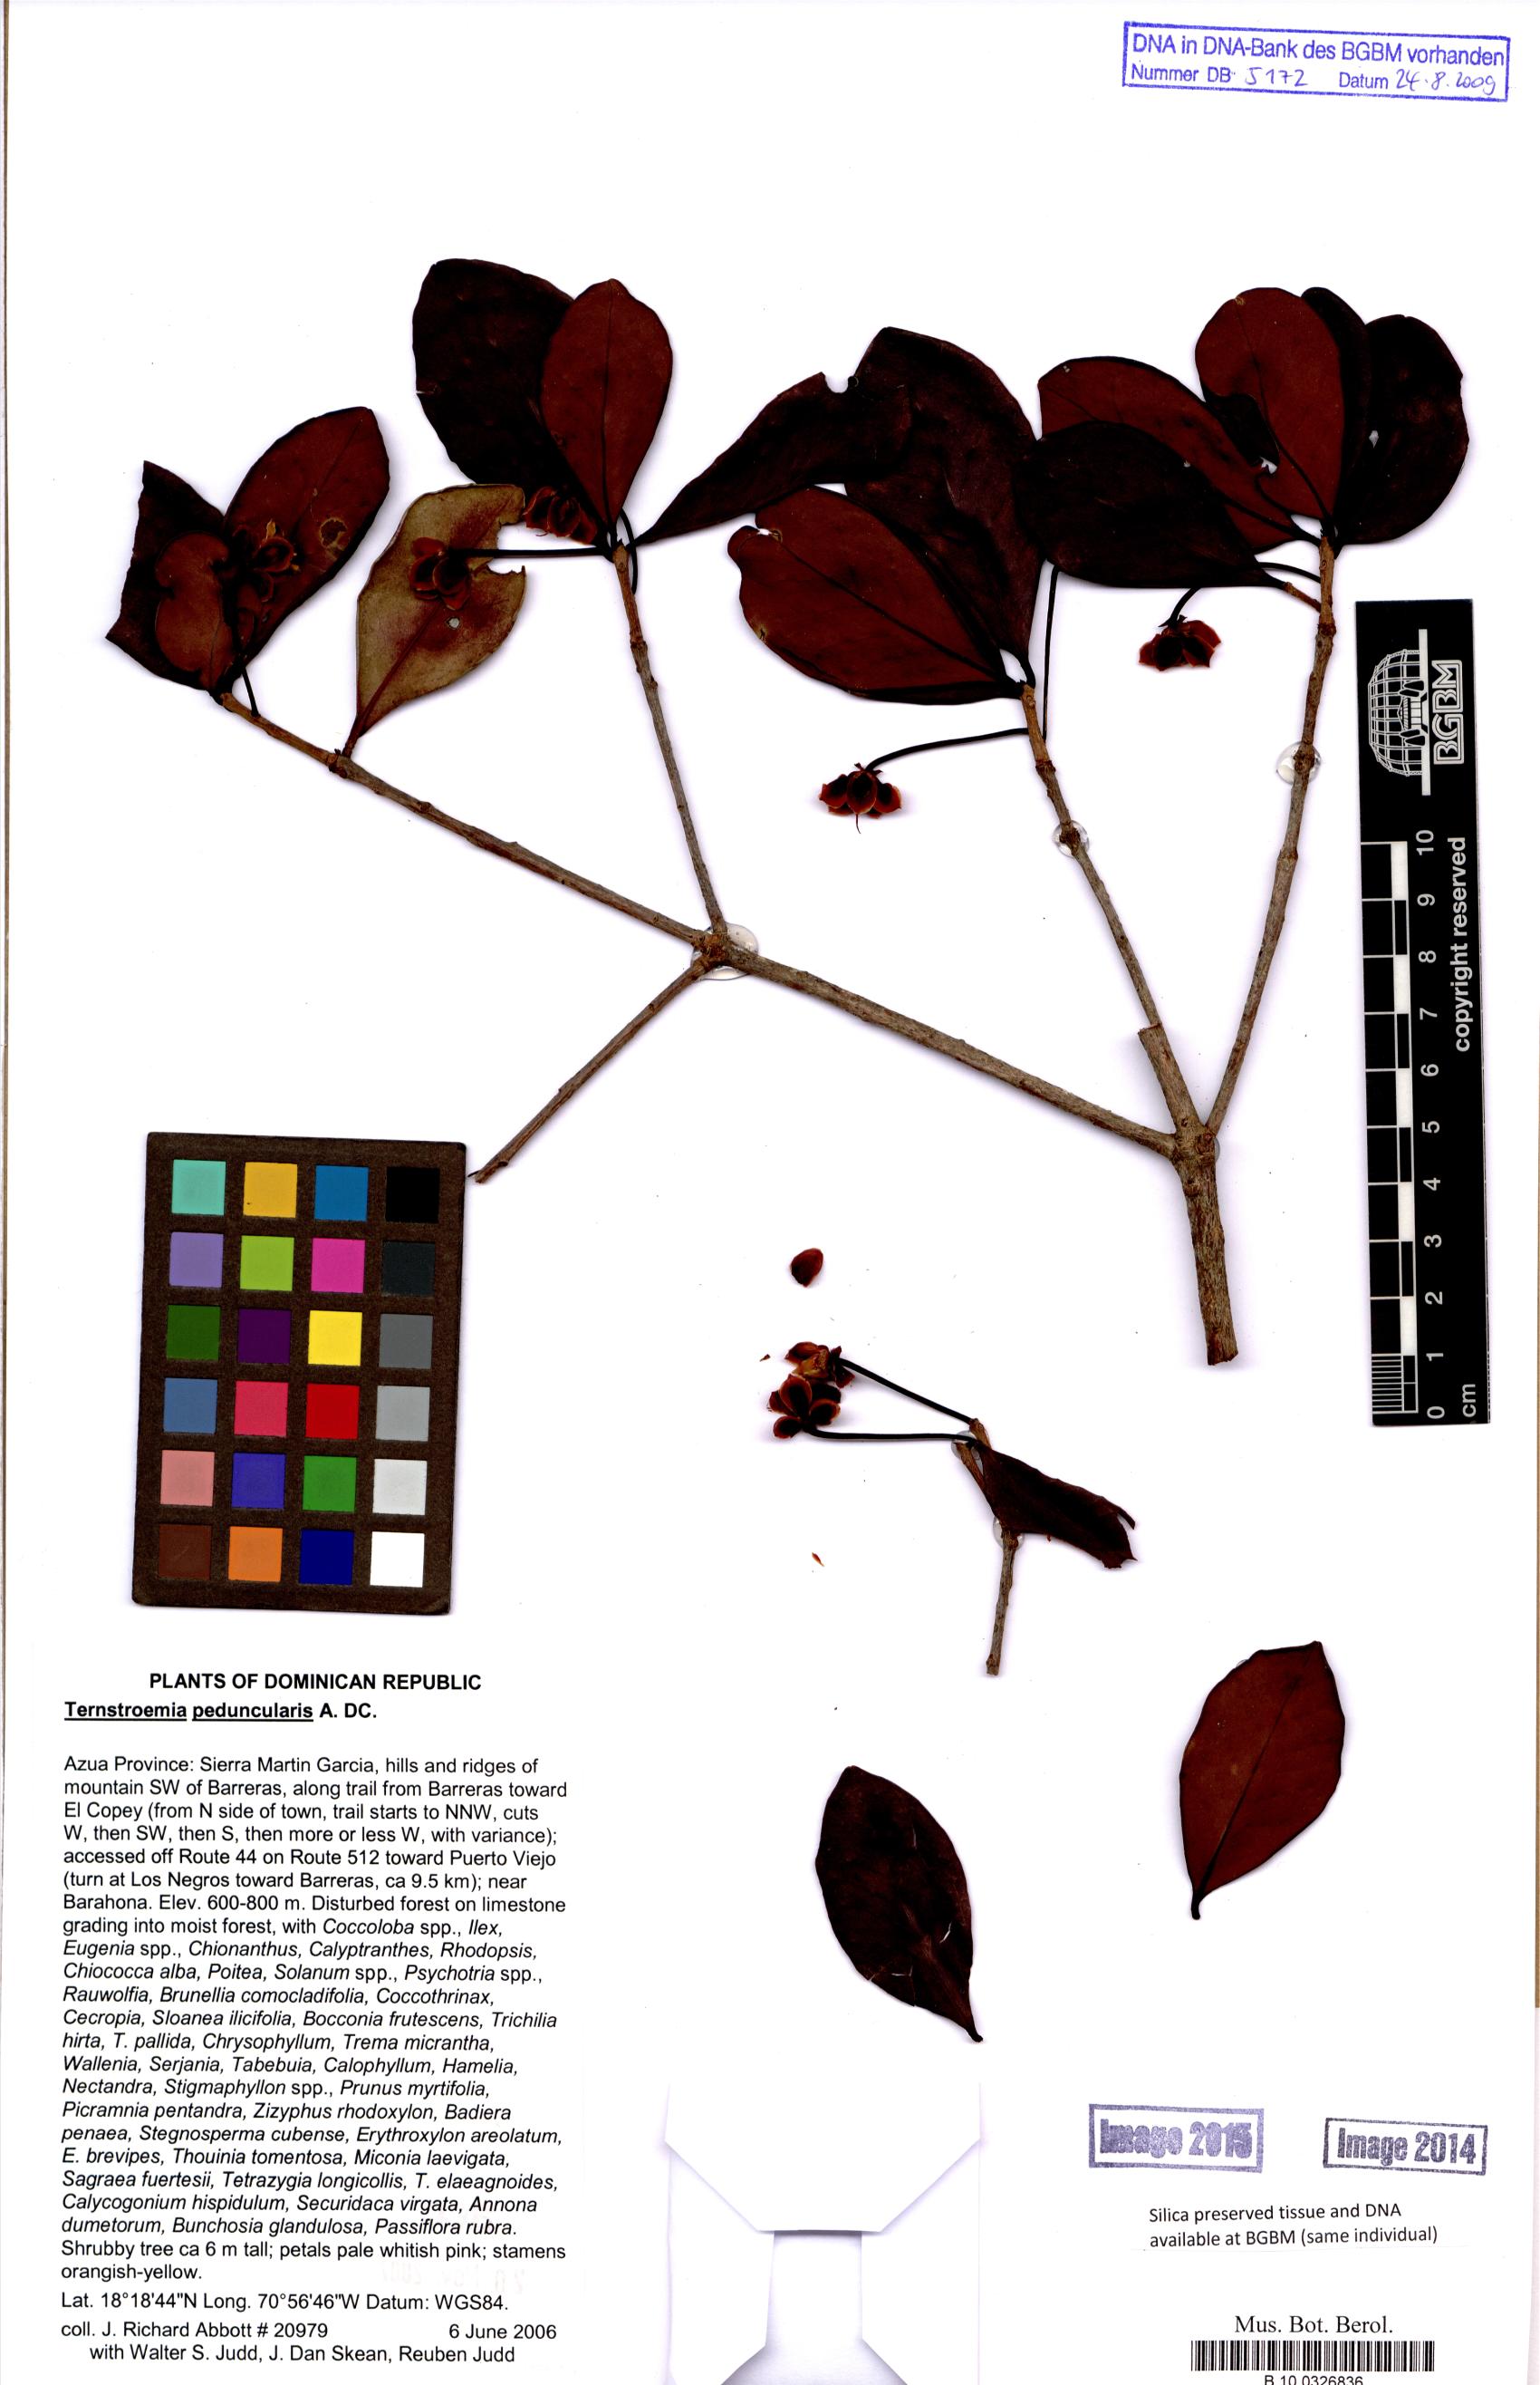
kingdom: Plantae
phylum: Tracheophyta
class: Magnoliopsida
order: Ericales
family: Pentaphylacaceae
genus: Ternstroemia
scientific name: Ternstroemia peduncularis
